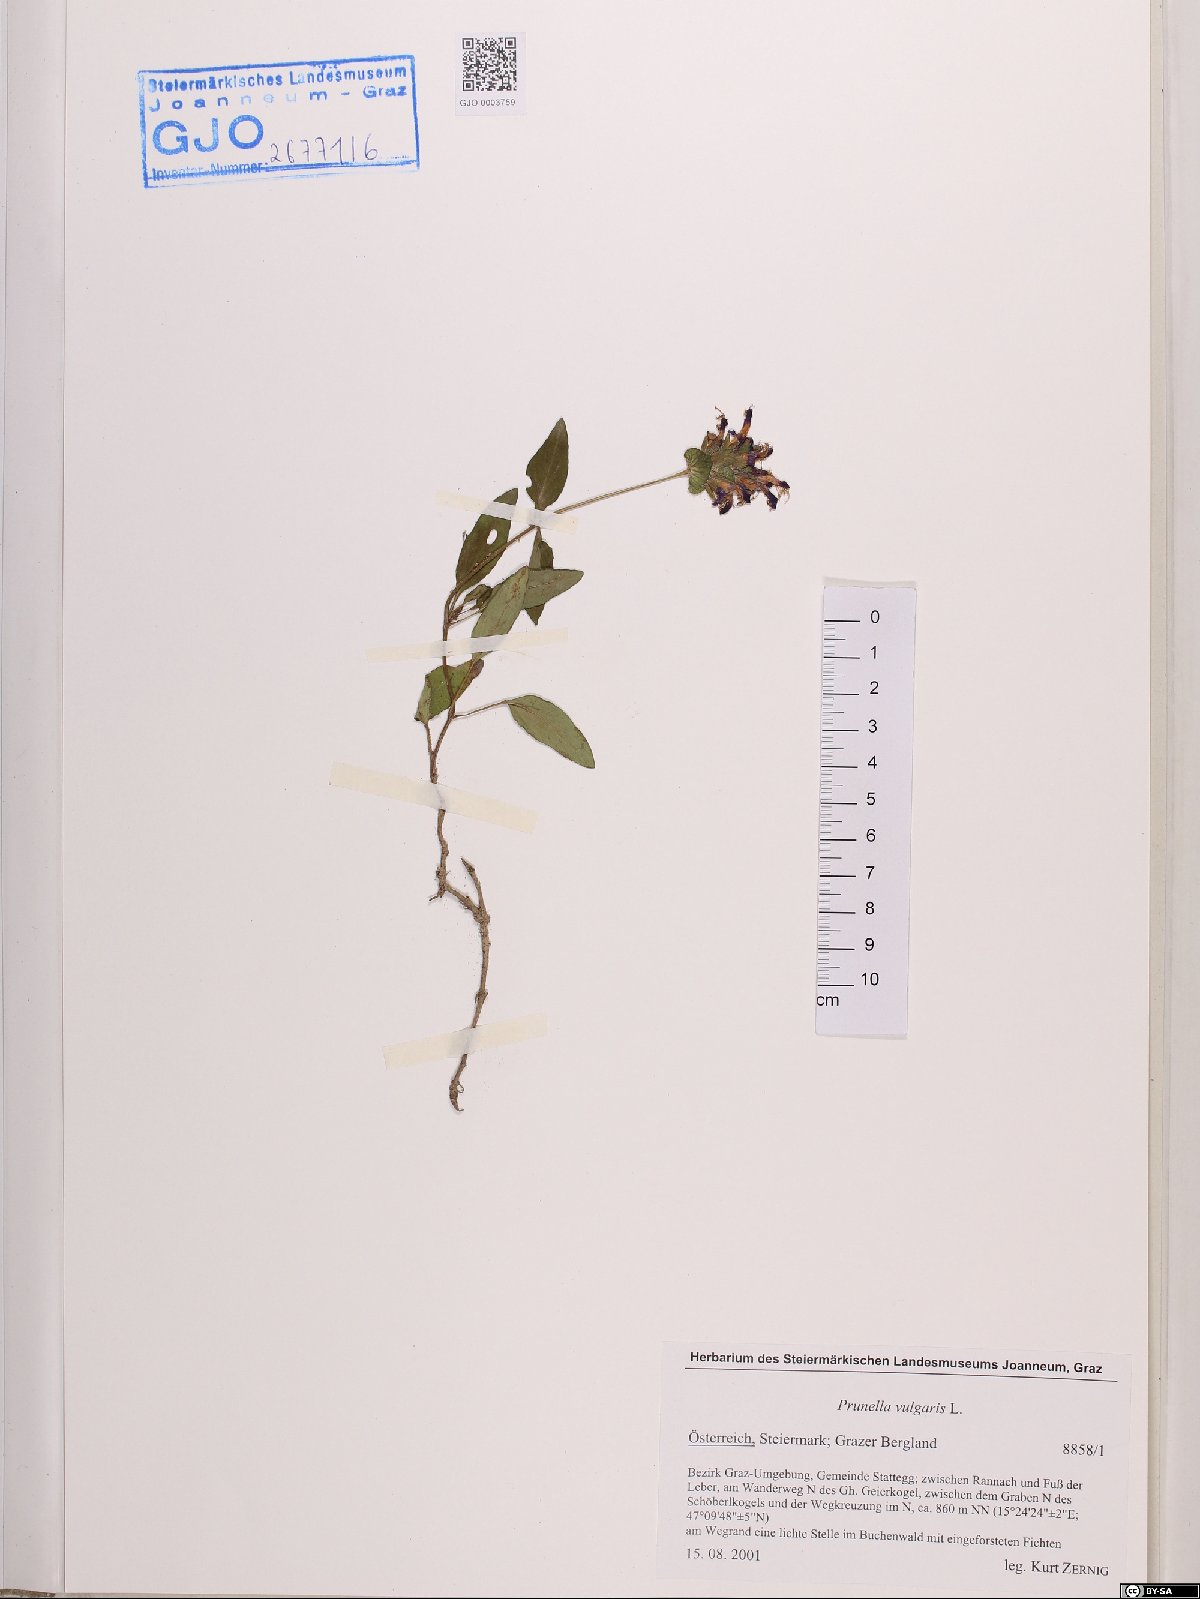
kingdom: Plantae
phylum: Tracheophyta
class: Magnoliopsida
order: Lamiales
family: Lamiaceae
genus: Prunella
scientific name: Prunella vulgaris
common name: Heal-all
